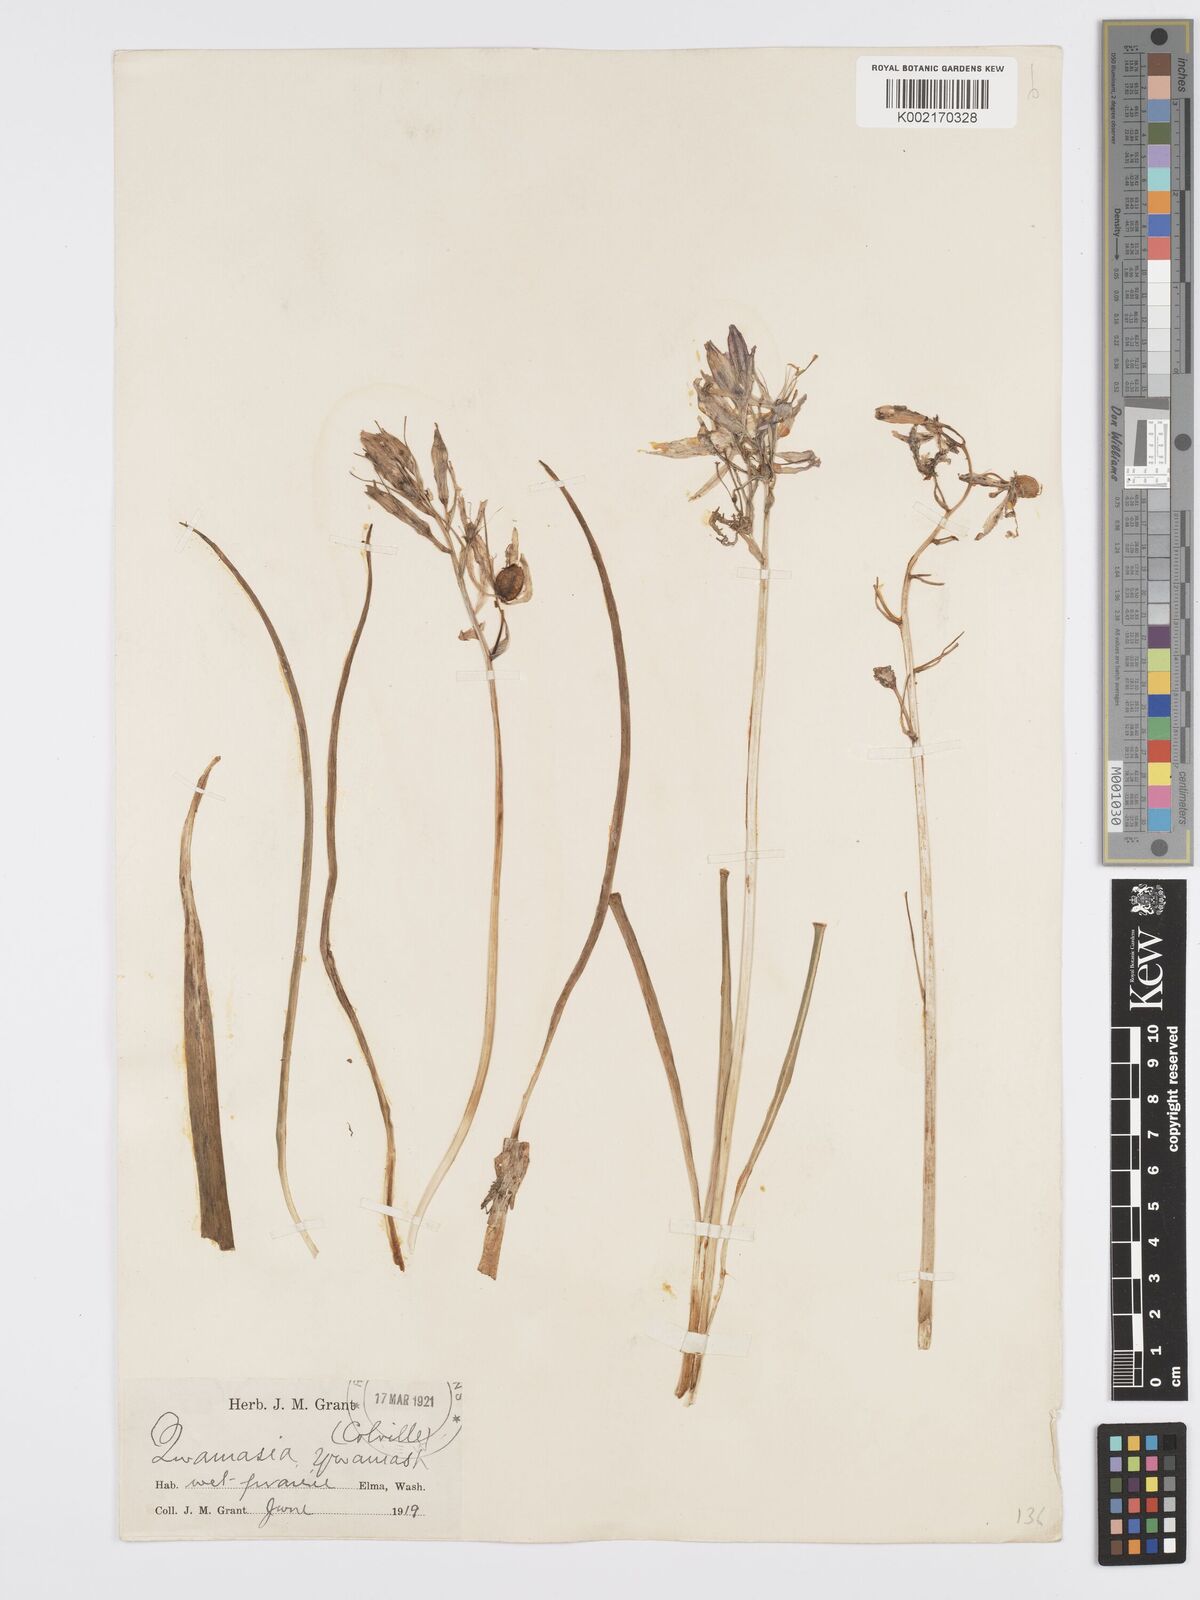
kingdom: Plantae
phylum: Tracheophyta
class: Liliopsida
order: Asparagales
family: Asparagaceae
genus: Camassia
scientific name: Camassia quamash
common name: Common camas
